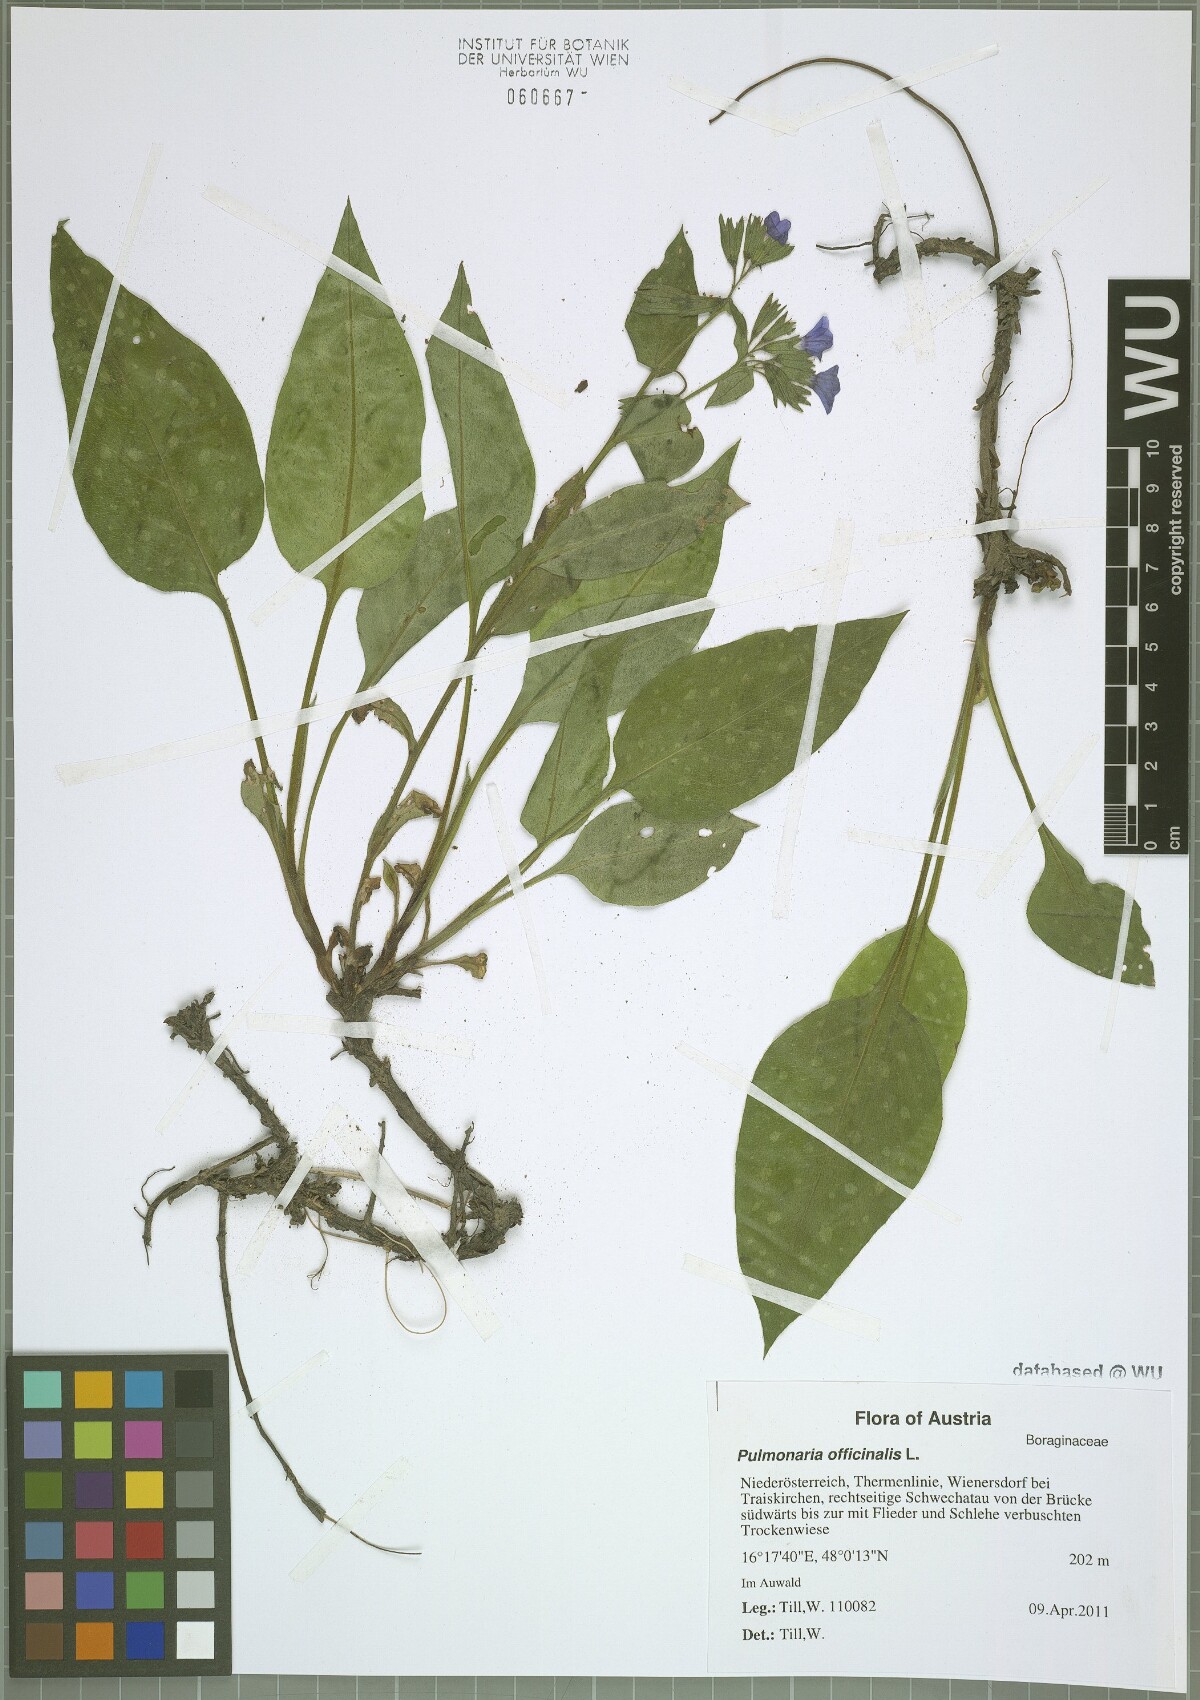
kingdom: Plantae
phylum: Tracheophyta
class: Magnoliopsida
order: Boraginales
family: Boraginaceae
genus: Pulmonaria
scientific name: Pulmonaria officinalis
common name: Lungwort
